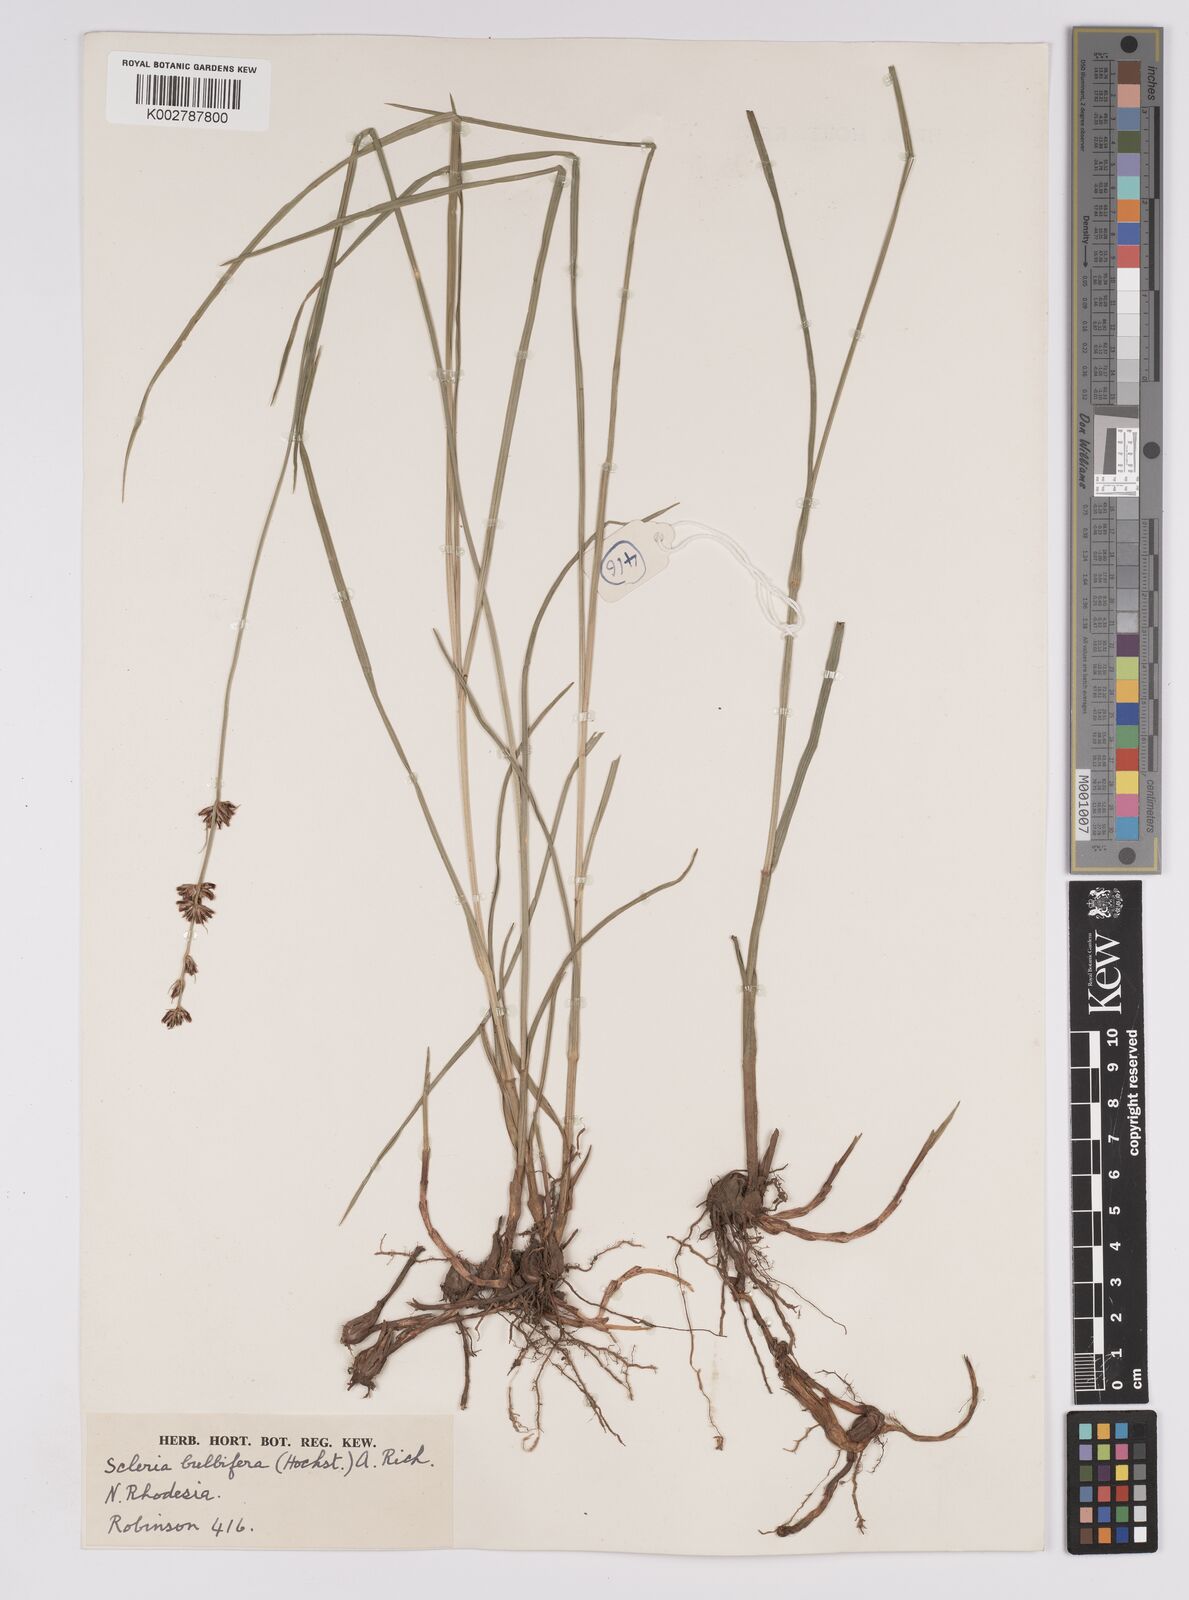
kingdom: Plantae
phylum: Tracheophyta
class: Liliopsida
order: Poales
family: Cyperaceae
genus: Scleria
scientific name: Scleria bulbifera
